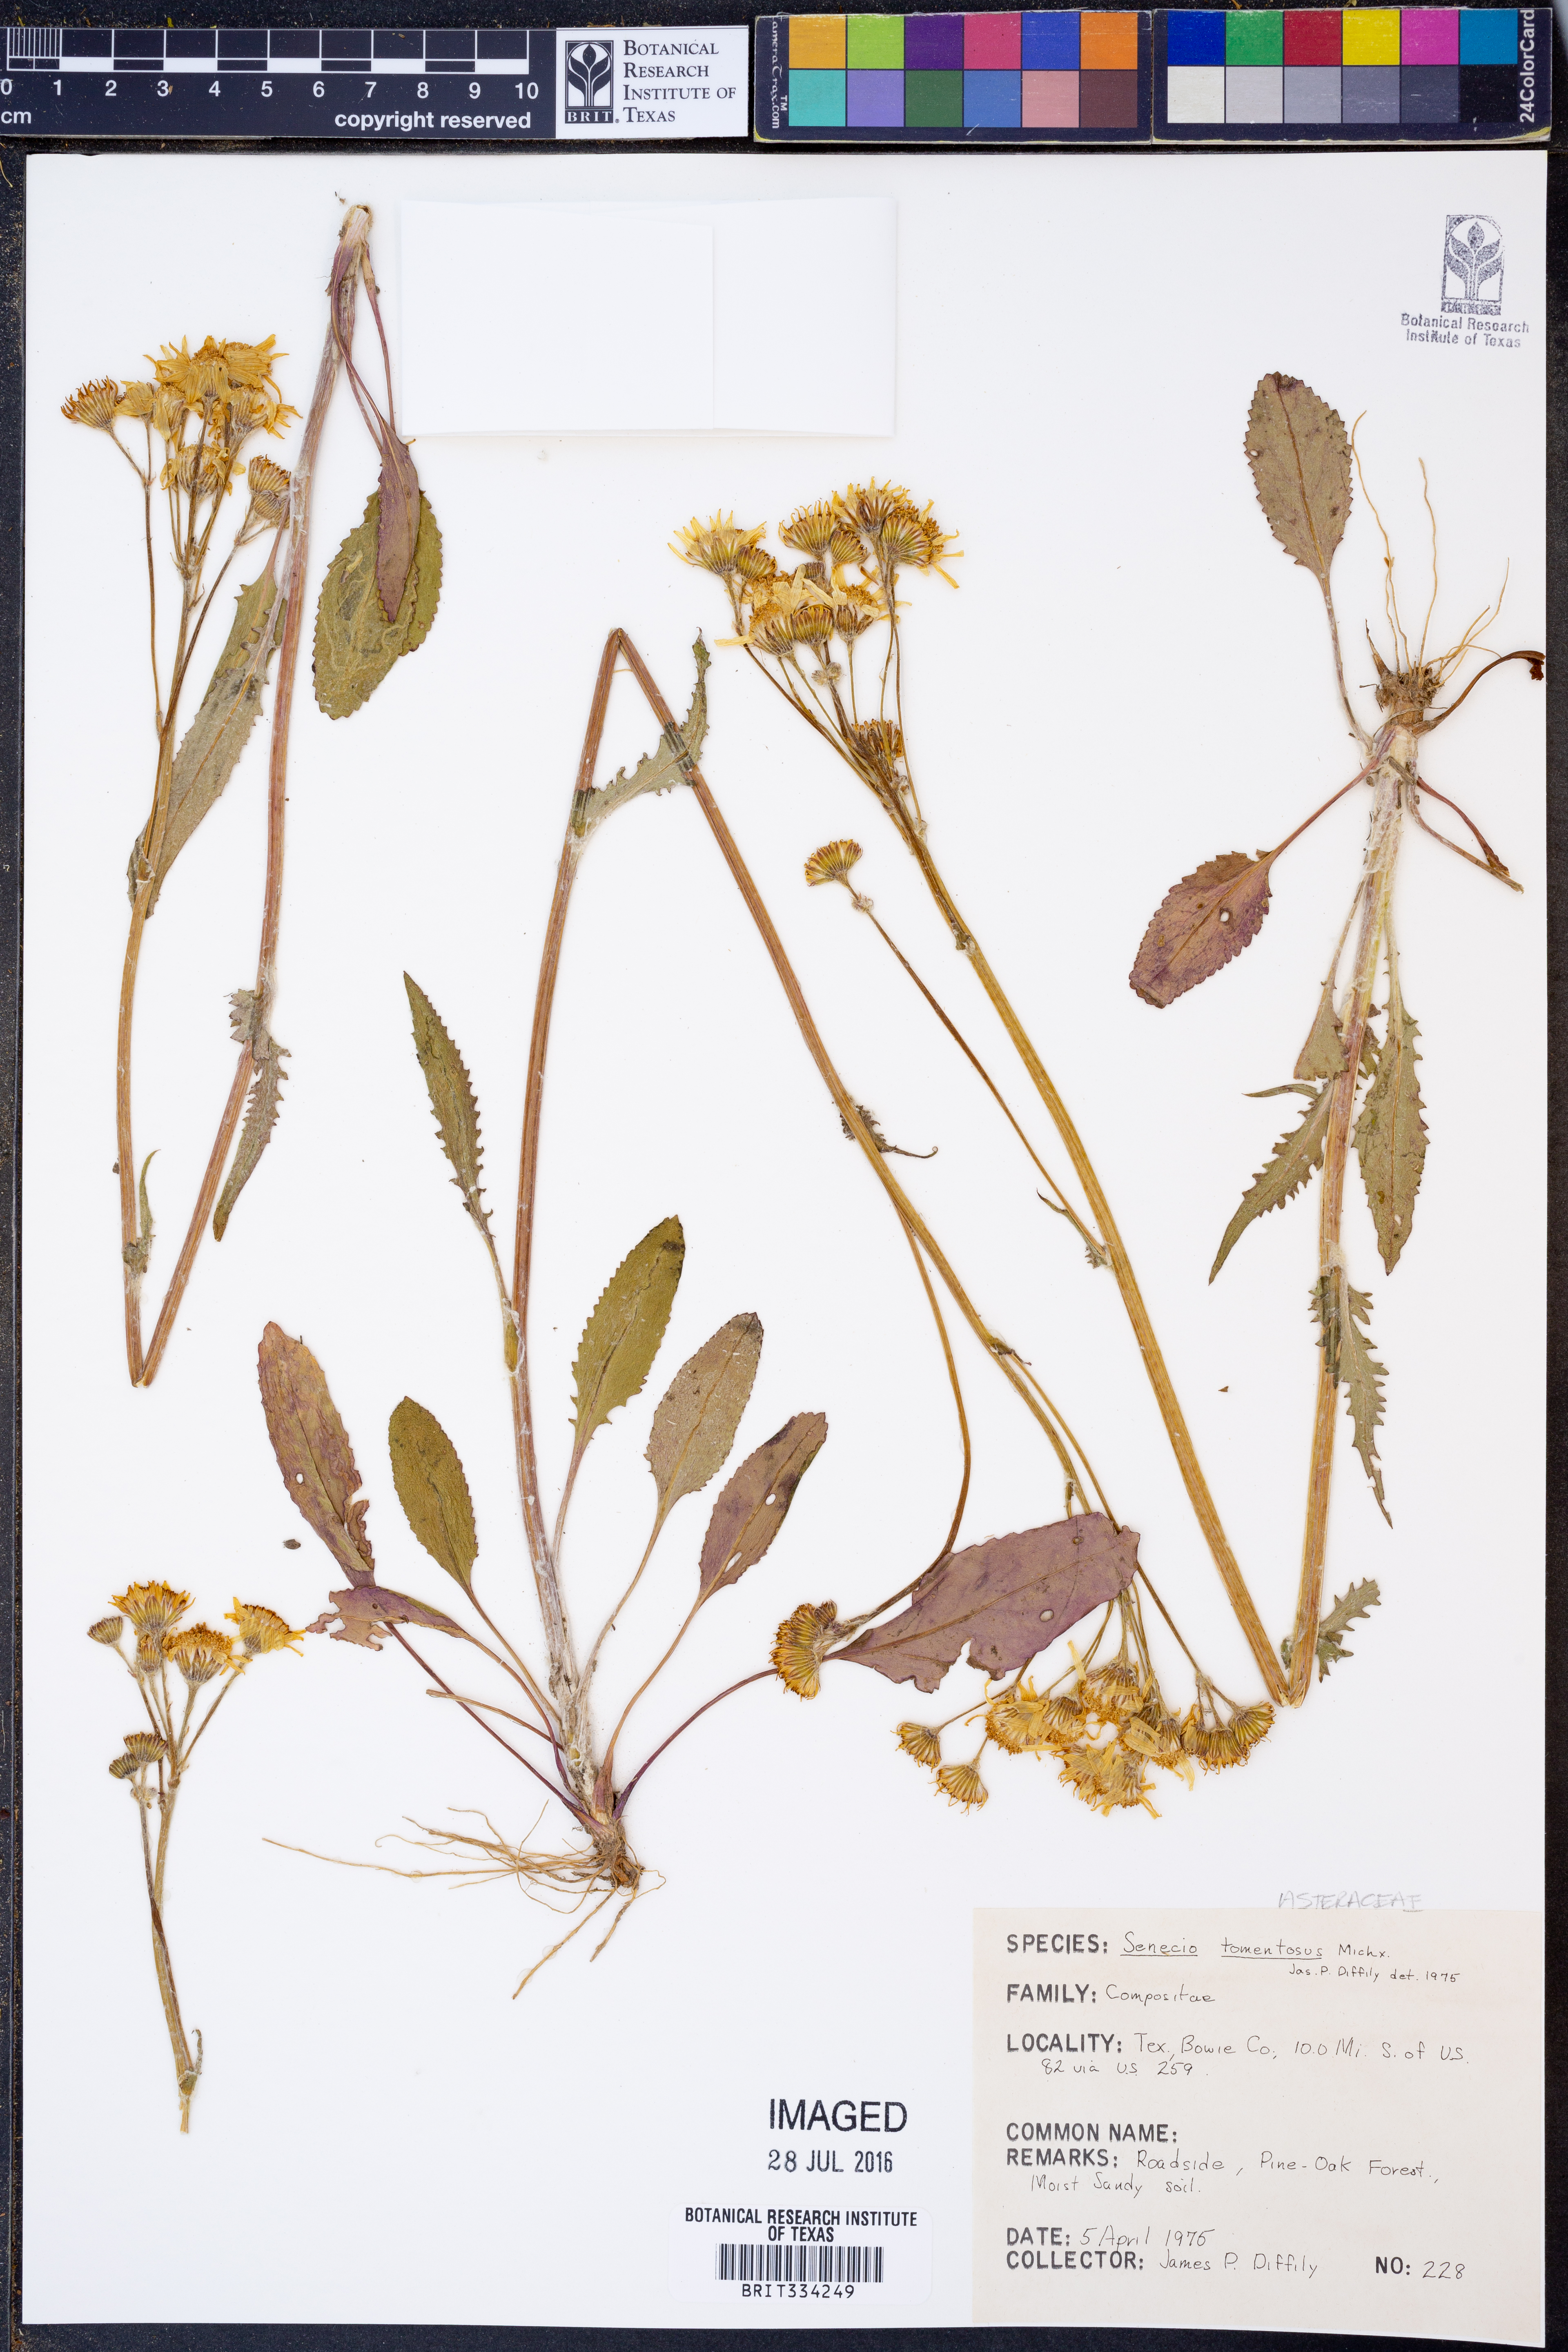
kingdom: Plantae
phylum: Tracheophyta
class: Magnoliopsida
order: Asterales
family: Asteraceae
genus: Senecio
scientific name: Senecio cinerascens
